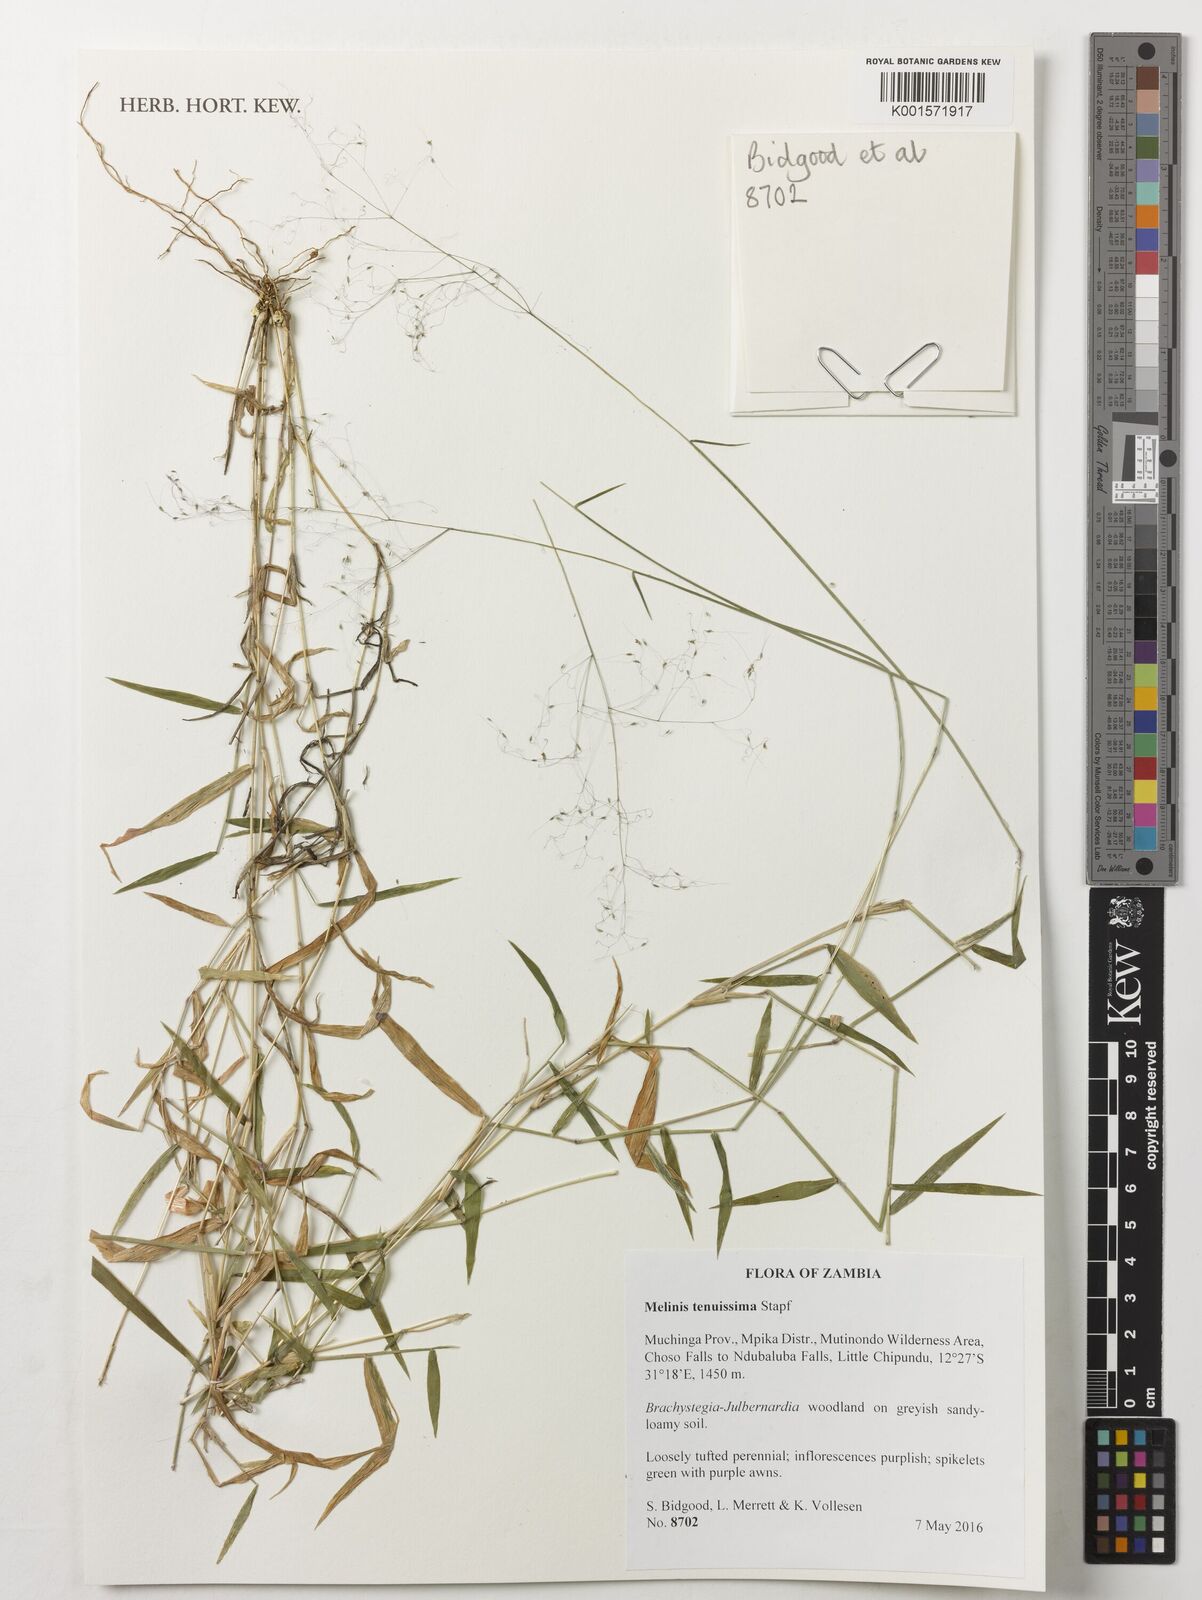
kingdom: Plantae
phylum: Tracheophyta
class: Liliopsida
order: Poales
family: Poaceae
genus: Melinis
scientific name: Melinis tenuissima
